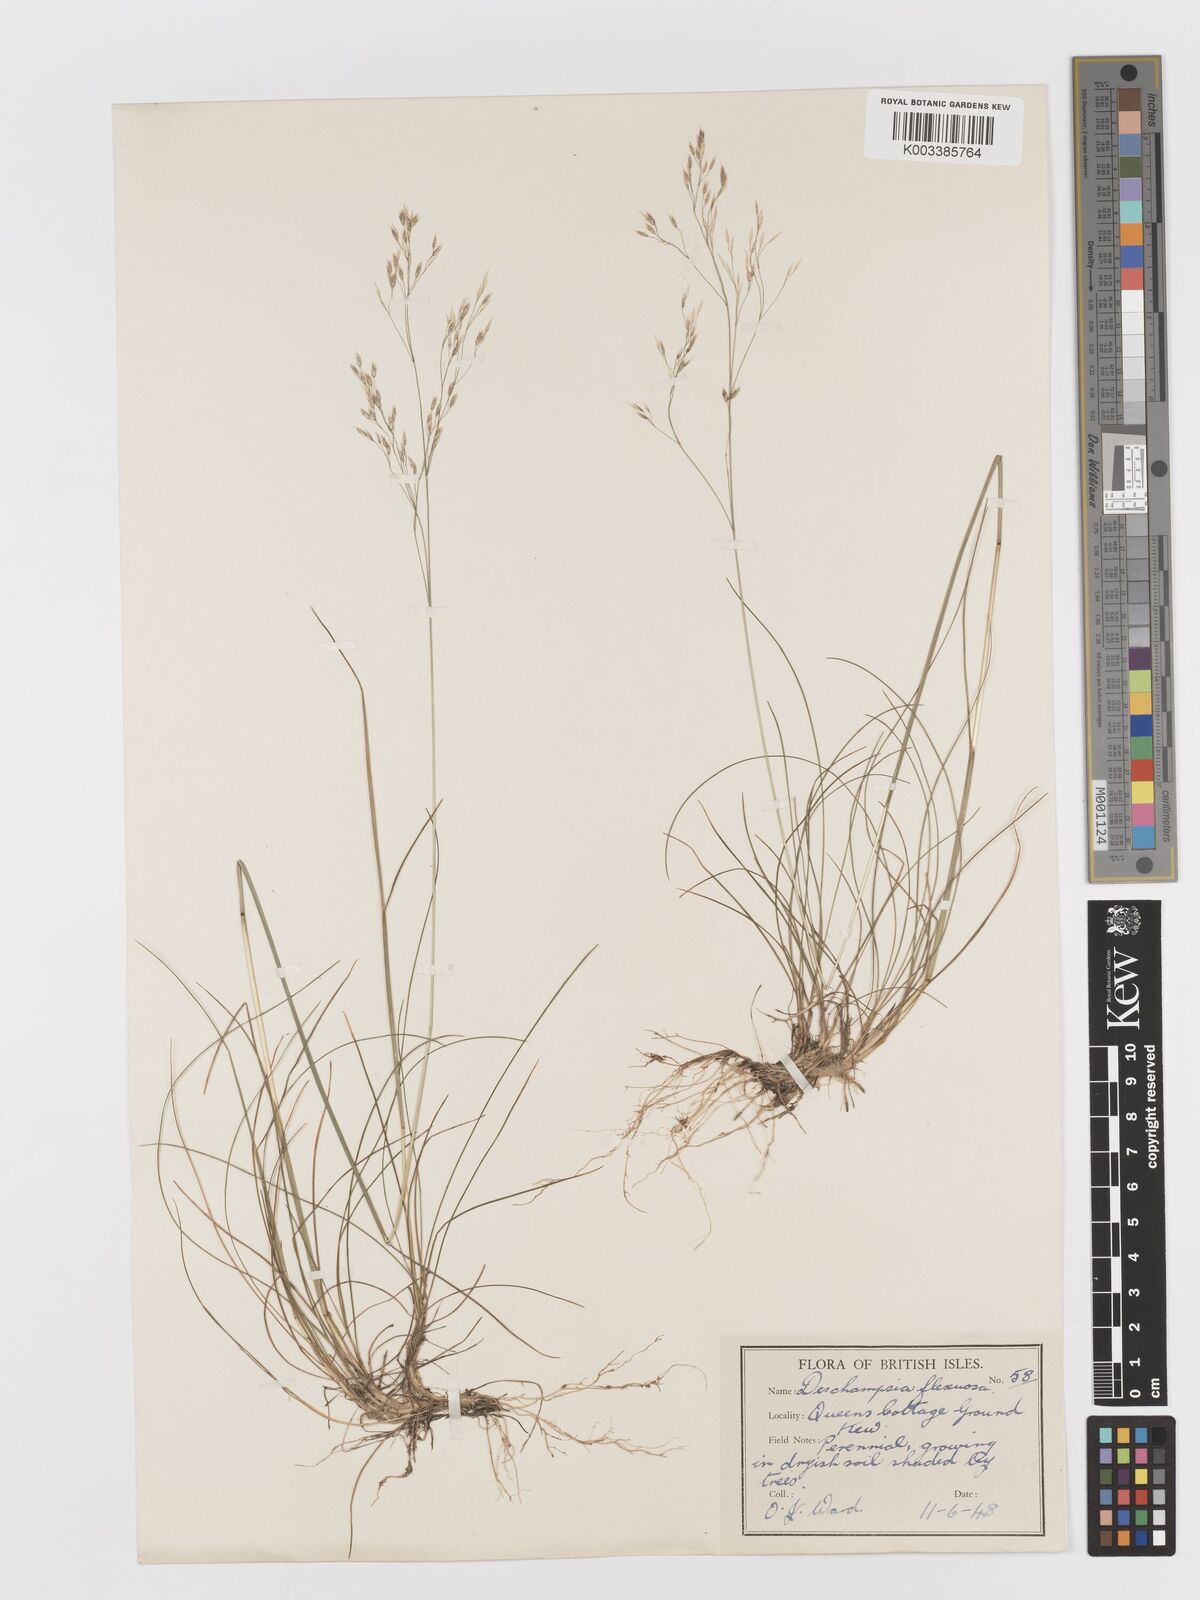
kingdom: Plantae
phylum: Tracheophyta
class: Liliopsida
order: Poales
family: Poaceae
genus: Avenella
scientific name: Avenella flexuosa
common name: Wavy hairgrass
